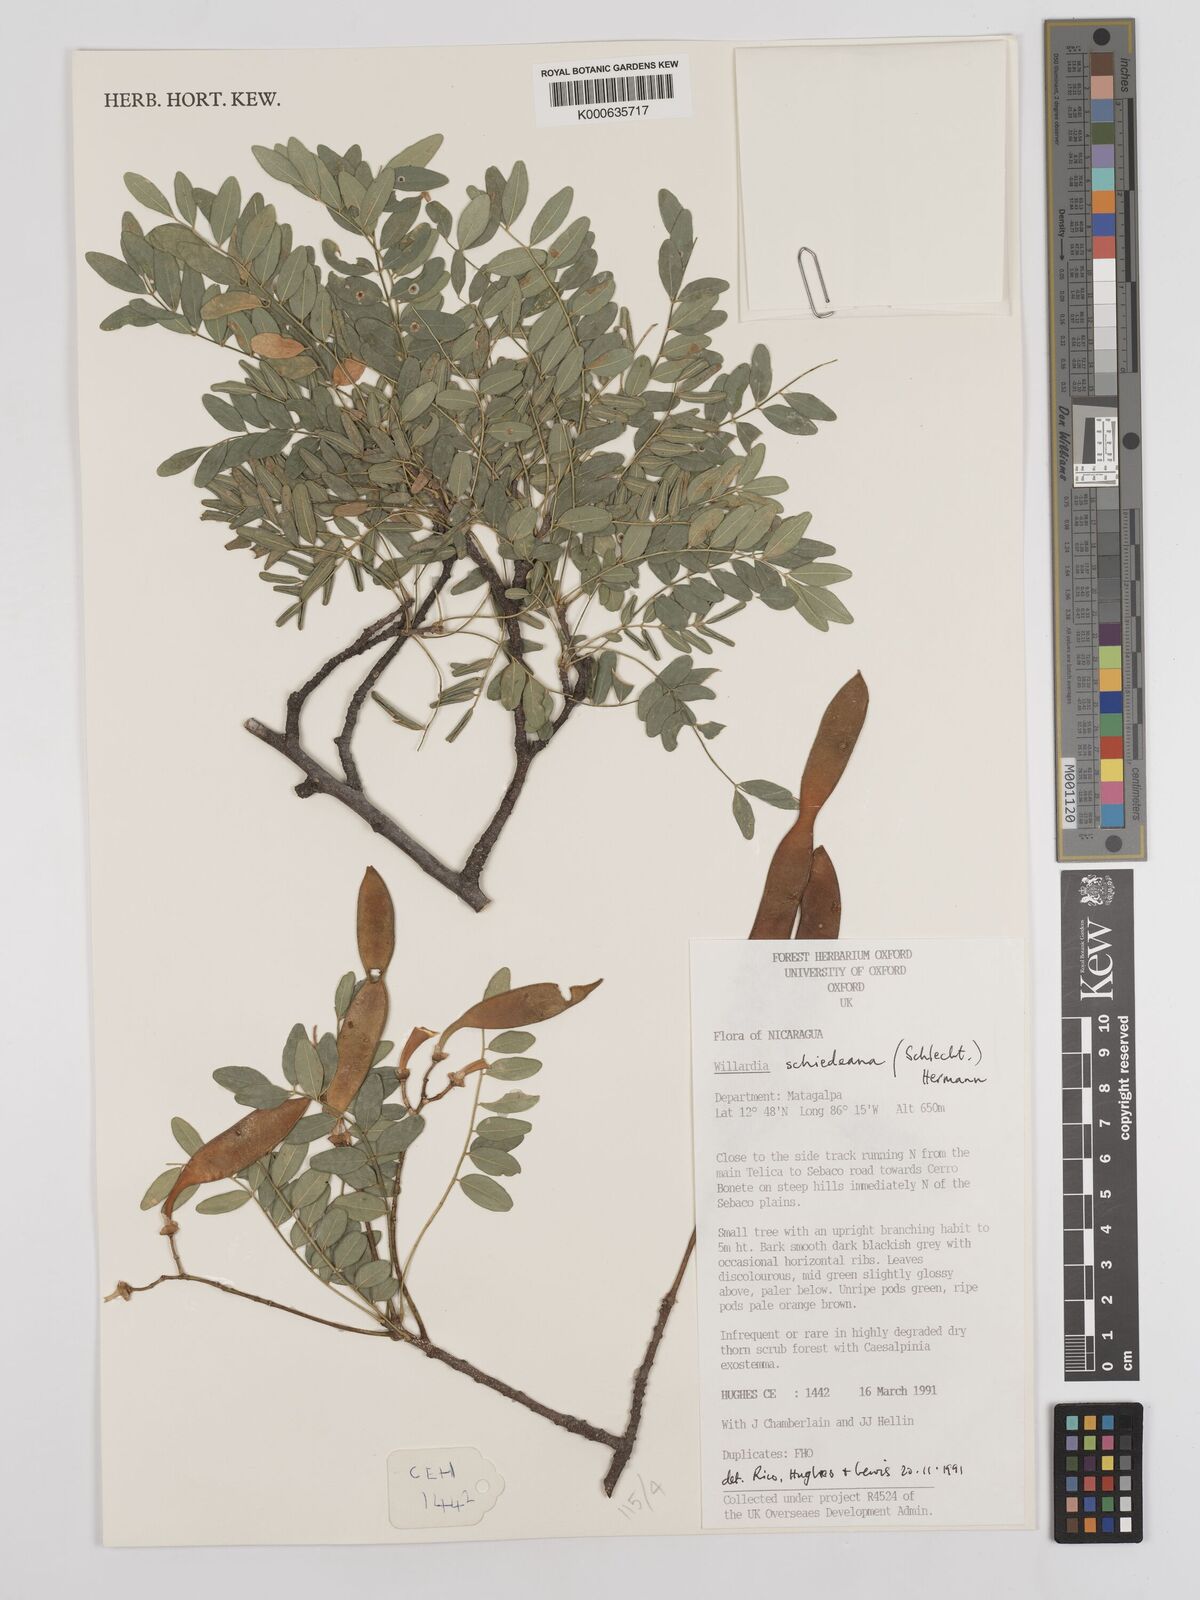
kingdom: Plantae
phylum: Tracheophyta
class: Magnoliopsida
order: Fabales
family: Fabaceae
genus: Lonchocarpus
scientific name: Lonchocarpus schiedeanus
